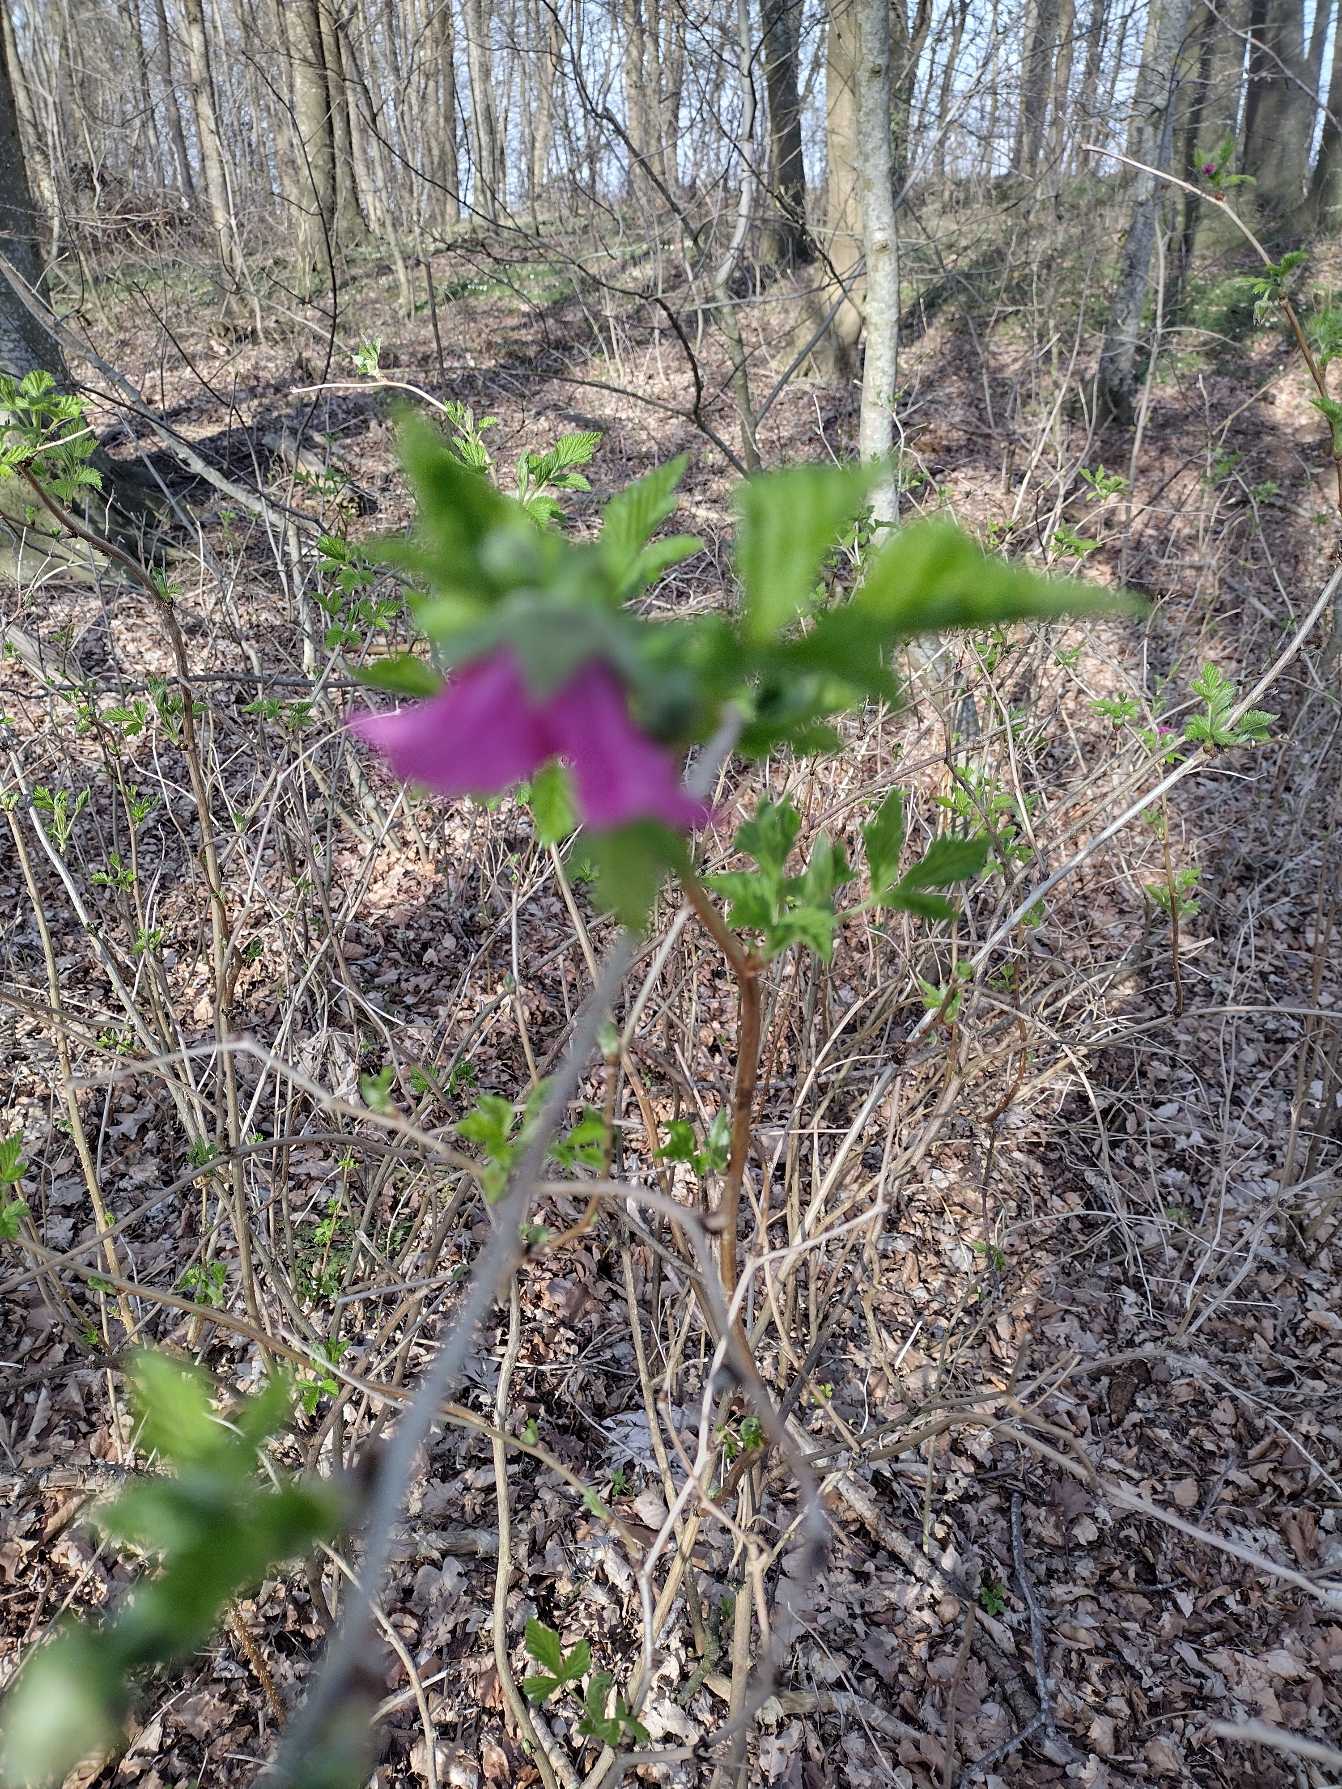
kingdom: Plantae
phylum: Tracheophyta
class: Magnoliopsida
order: Rosales
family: Rosaceae
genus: Rubus
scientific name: Rubus spectabilis
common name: Laksebær
